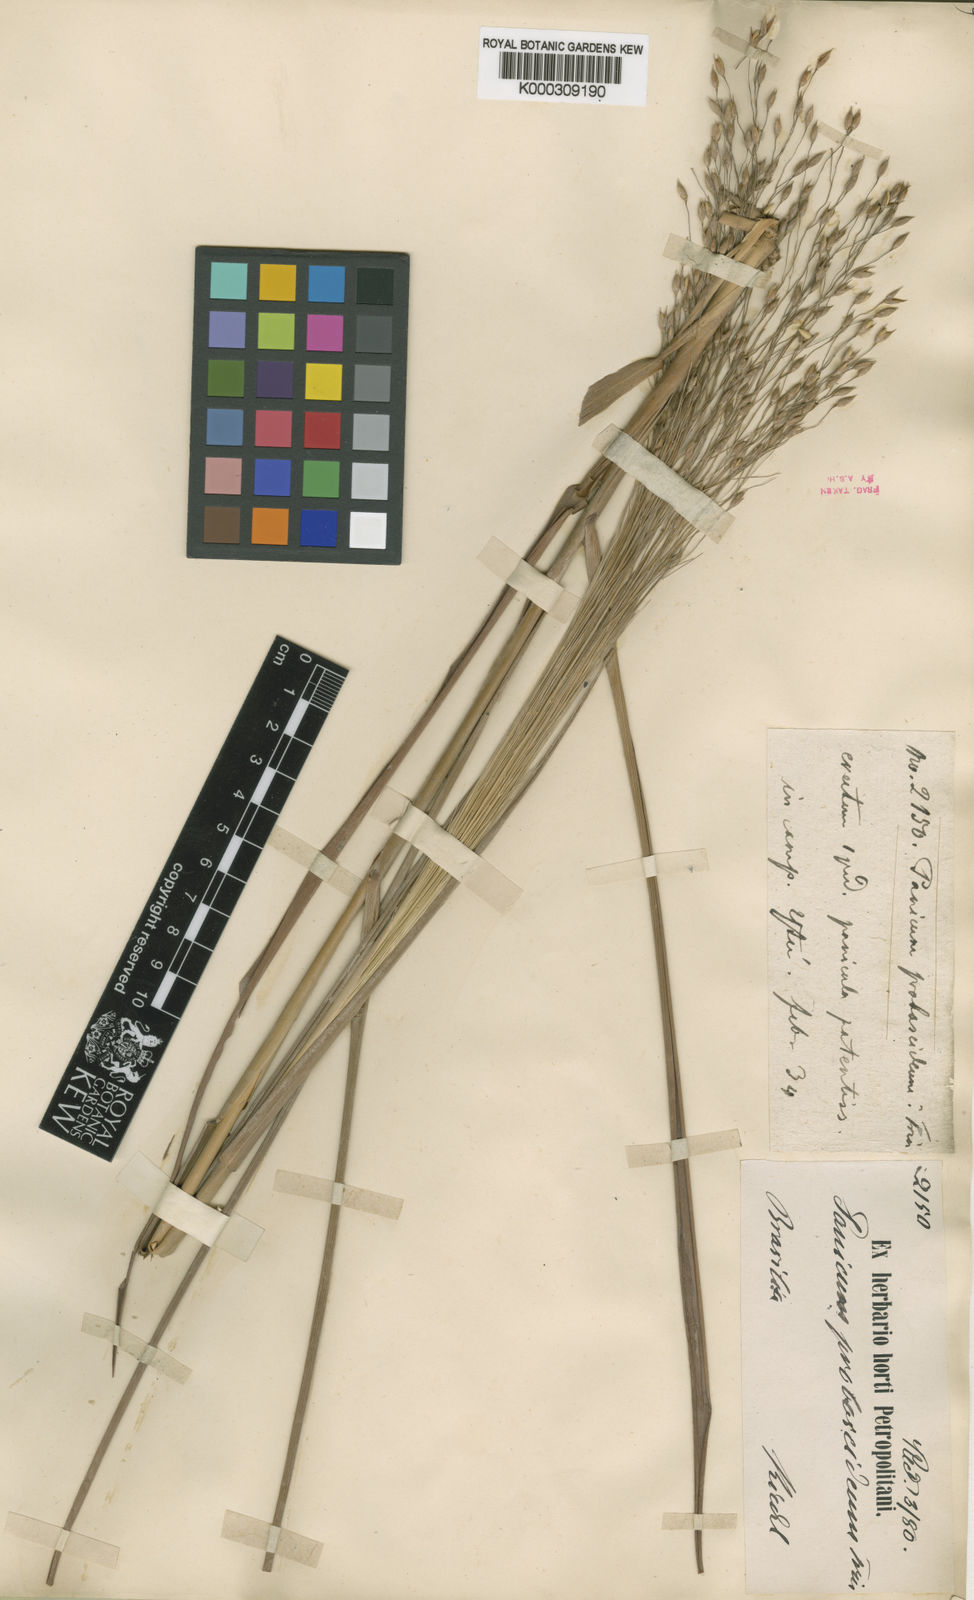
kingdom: Plantae
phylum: Tracheophyta
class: Liliopsida
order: Poales
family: Poaceae
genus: Panicum
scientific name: Panicum olyroides
